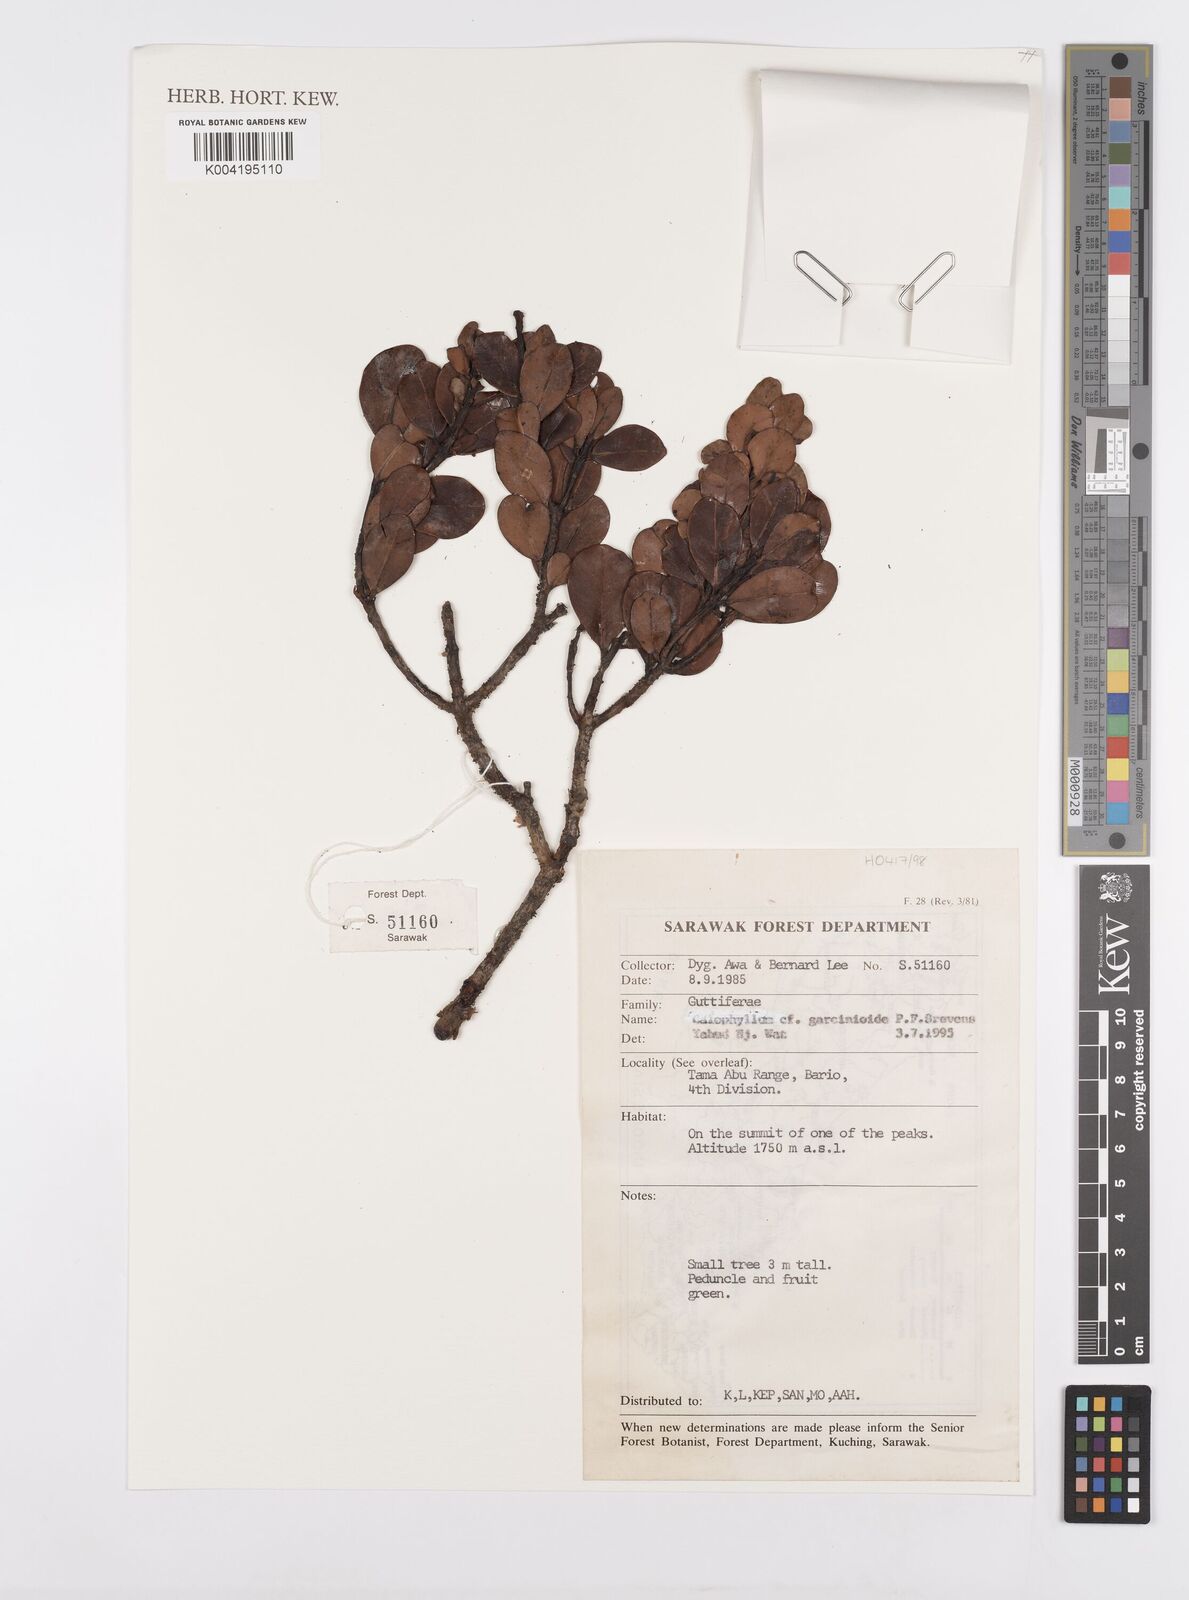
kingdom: Plantae
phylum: Tracheophyta
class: Magnoliopsida
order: Malpighiales
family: Calophyllaceae
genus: Calophyllum
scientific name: Calophyllum garcinioides
